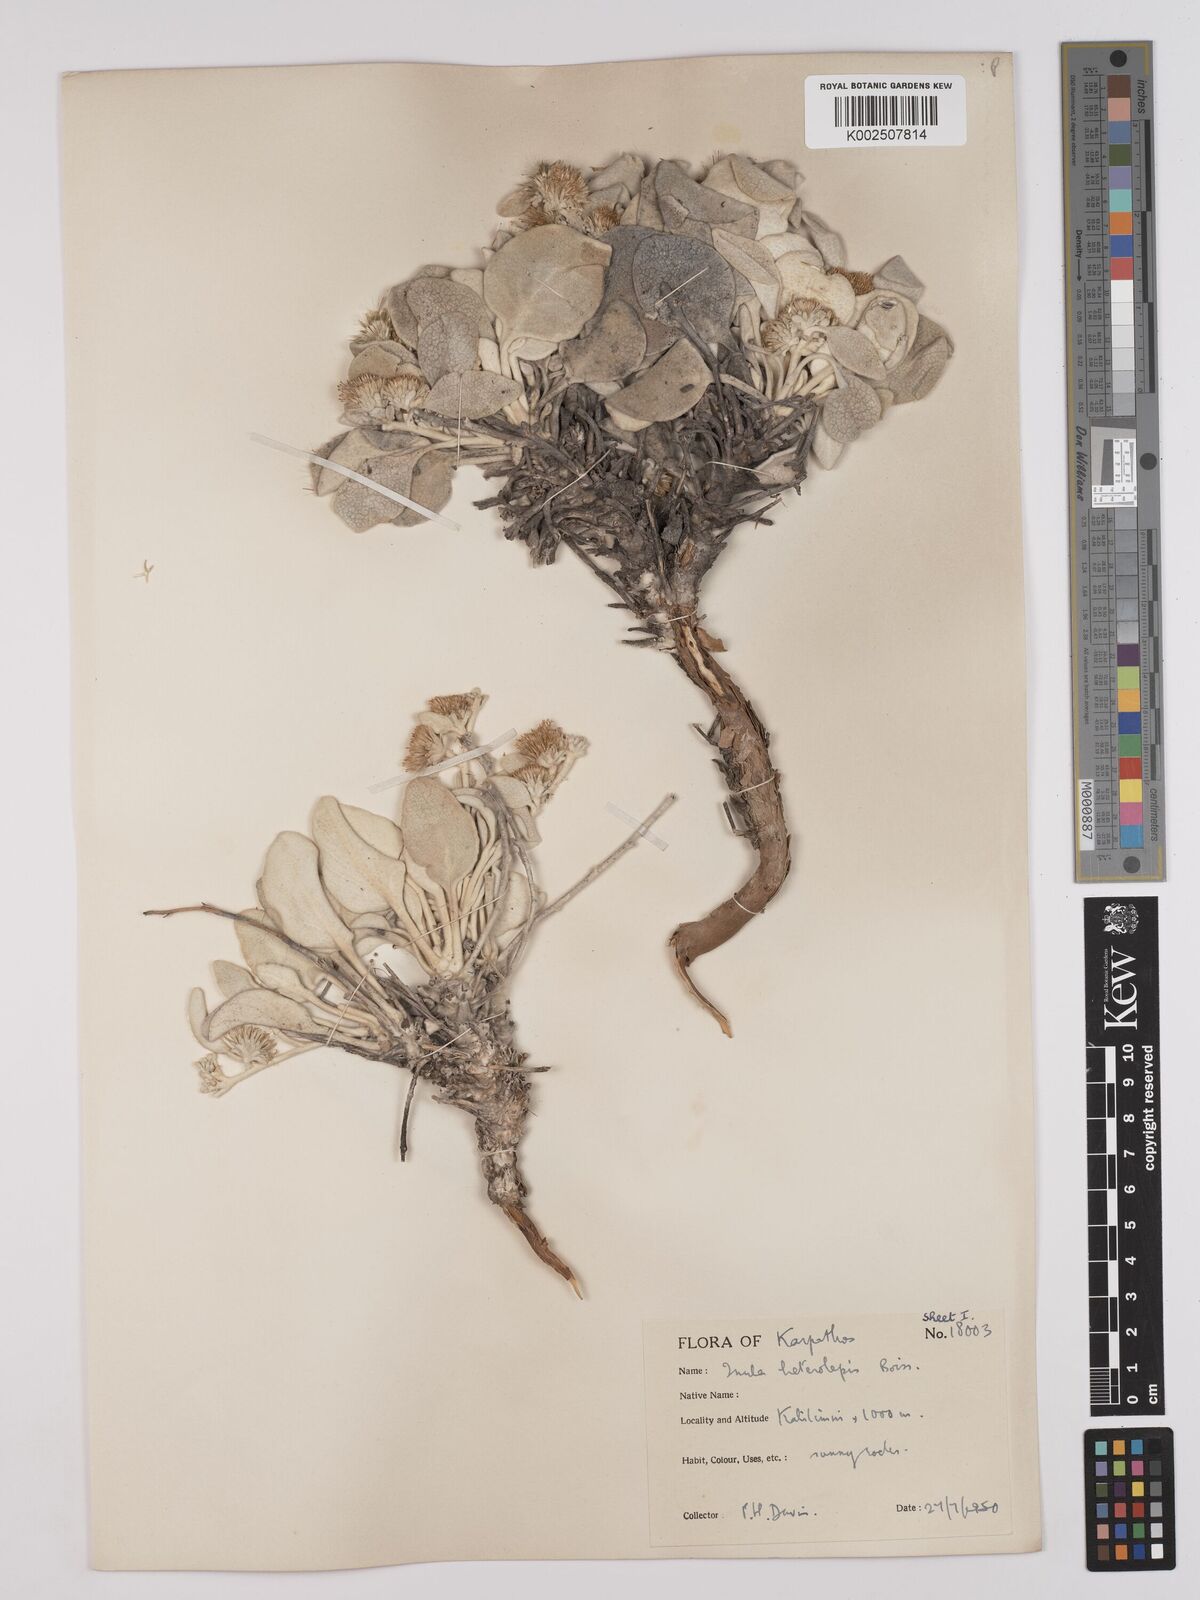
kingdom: Plantae
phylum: Tracheophyta
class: Magnoliopsida
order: Asterales
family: Asteraceae
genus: Pentanema
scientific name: Pentanema verbascifolium
